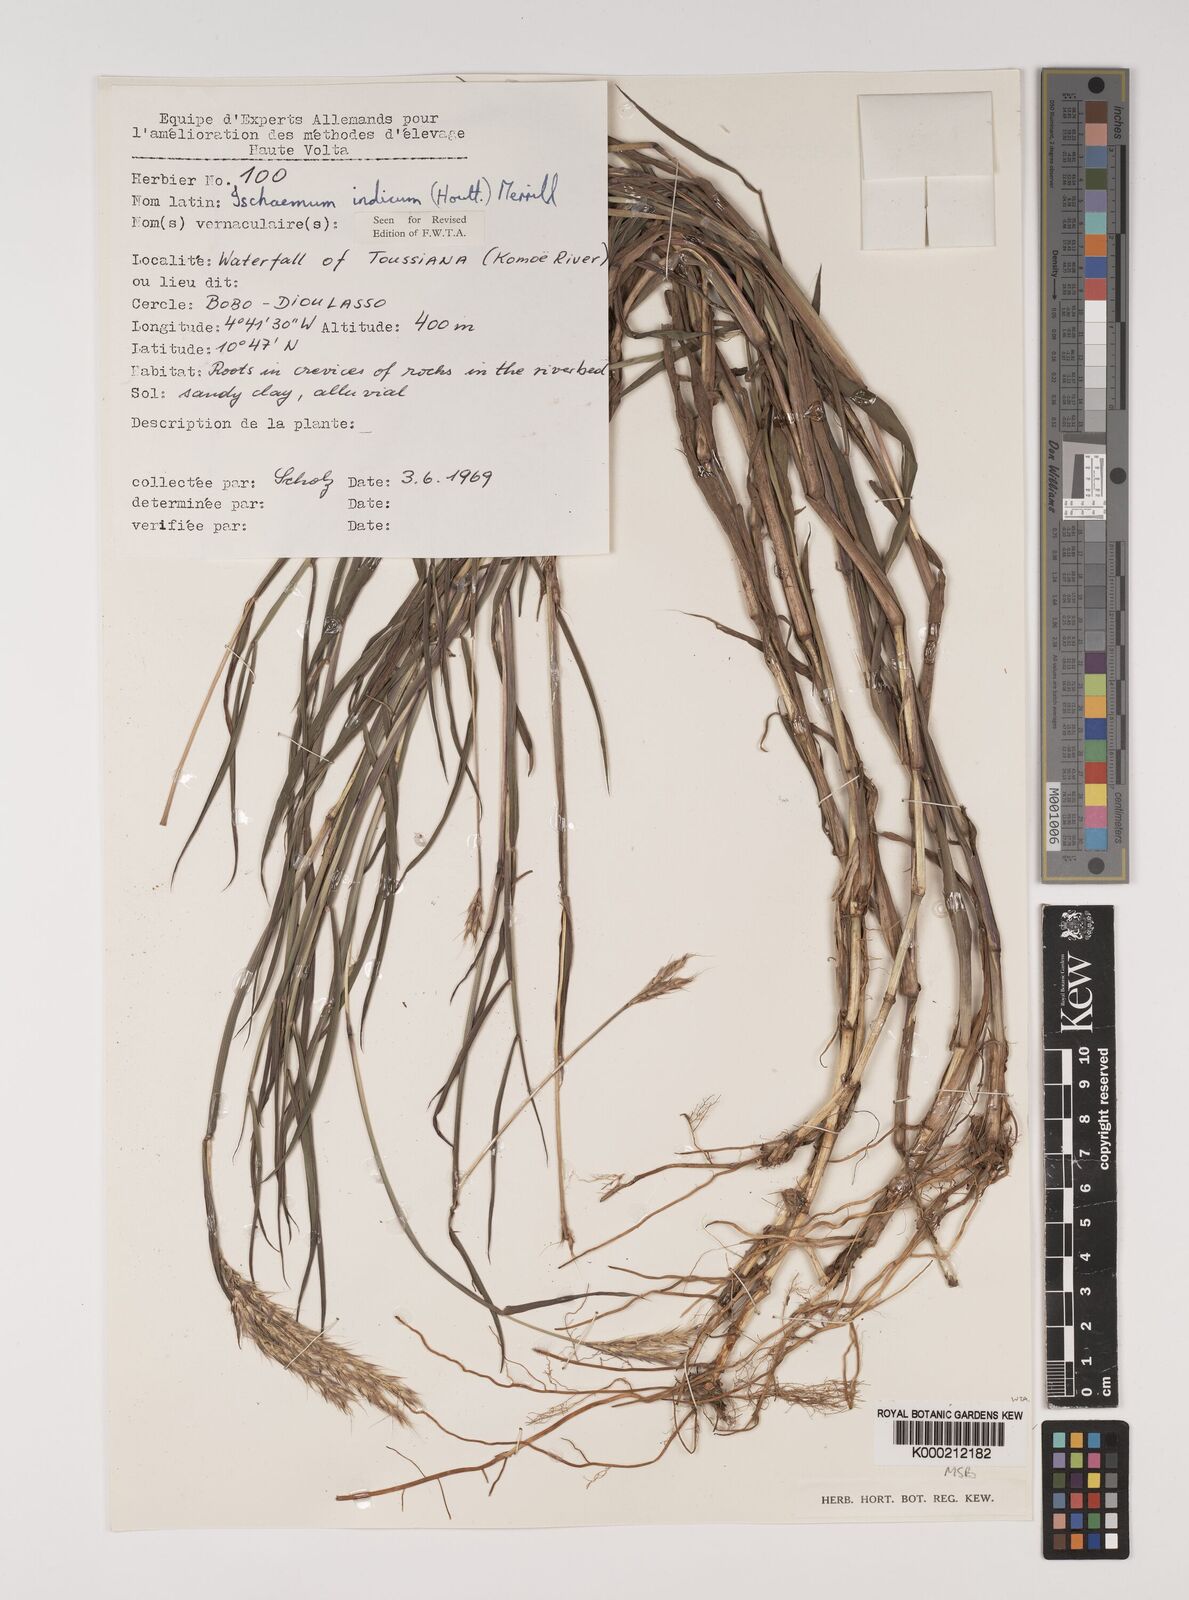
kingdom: Plantae
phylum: Tracheophyta
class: Liliopsida
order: Poales
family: Poaceae
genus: Ischaemum
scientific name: Ischaemum polystachyum
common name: Paddle grass
